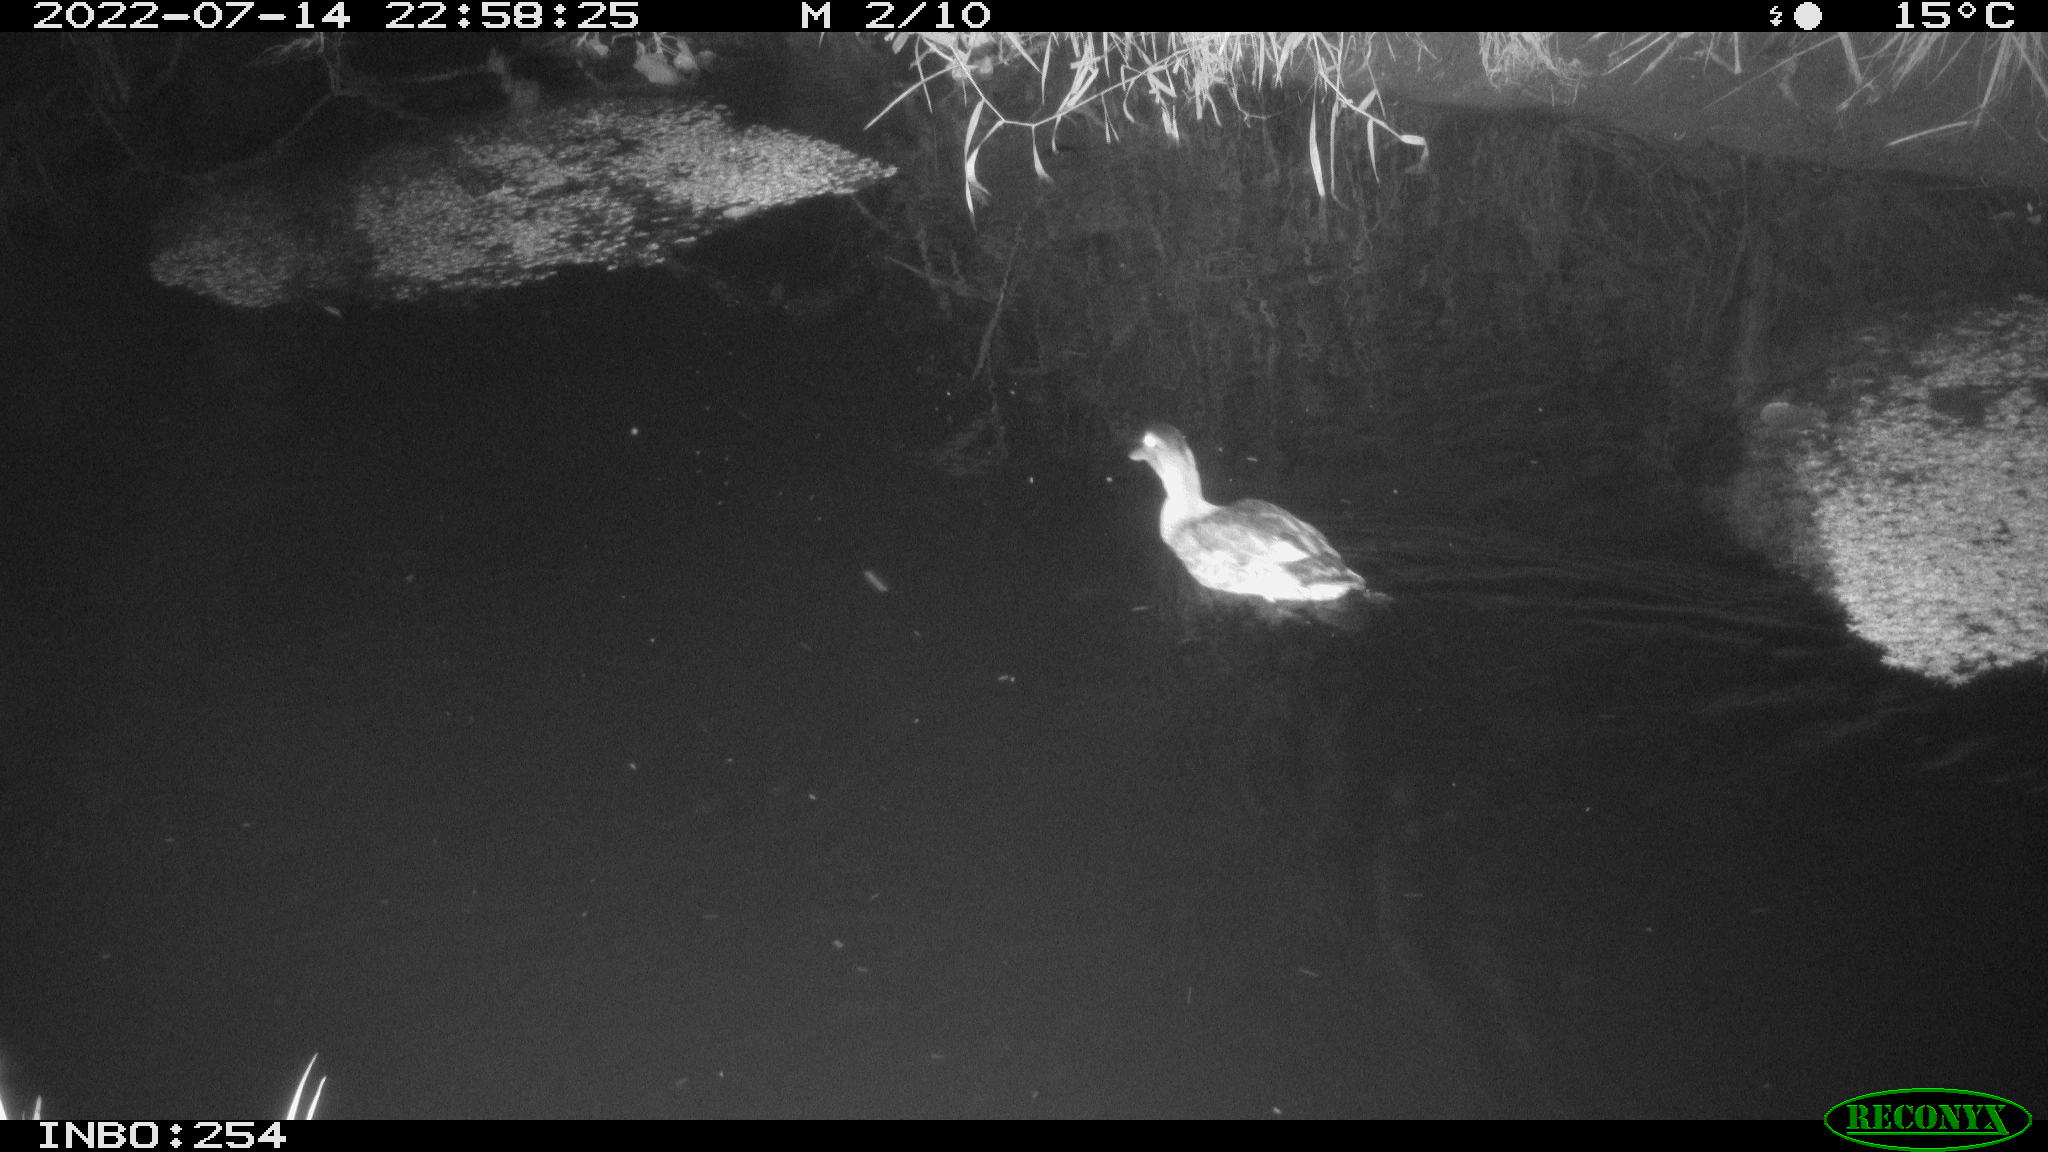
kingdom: Animalia
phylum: Chordata
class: Aves
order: Anseriformes
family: Anatidae
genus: Anas
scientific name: Anas platyrhynchos
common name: Mallard
